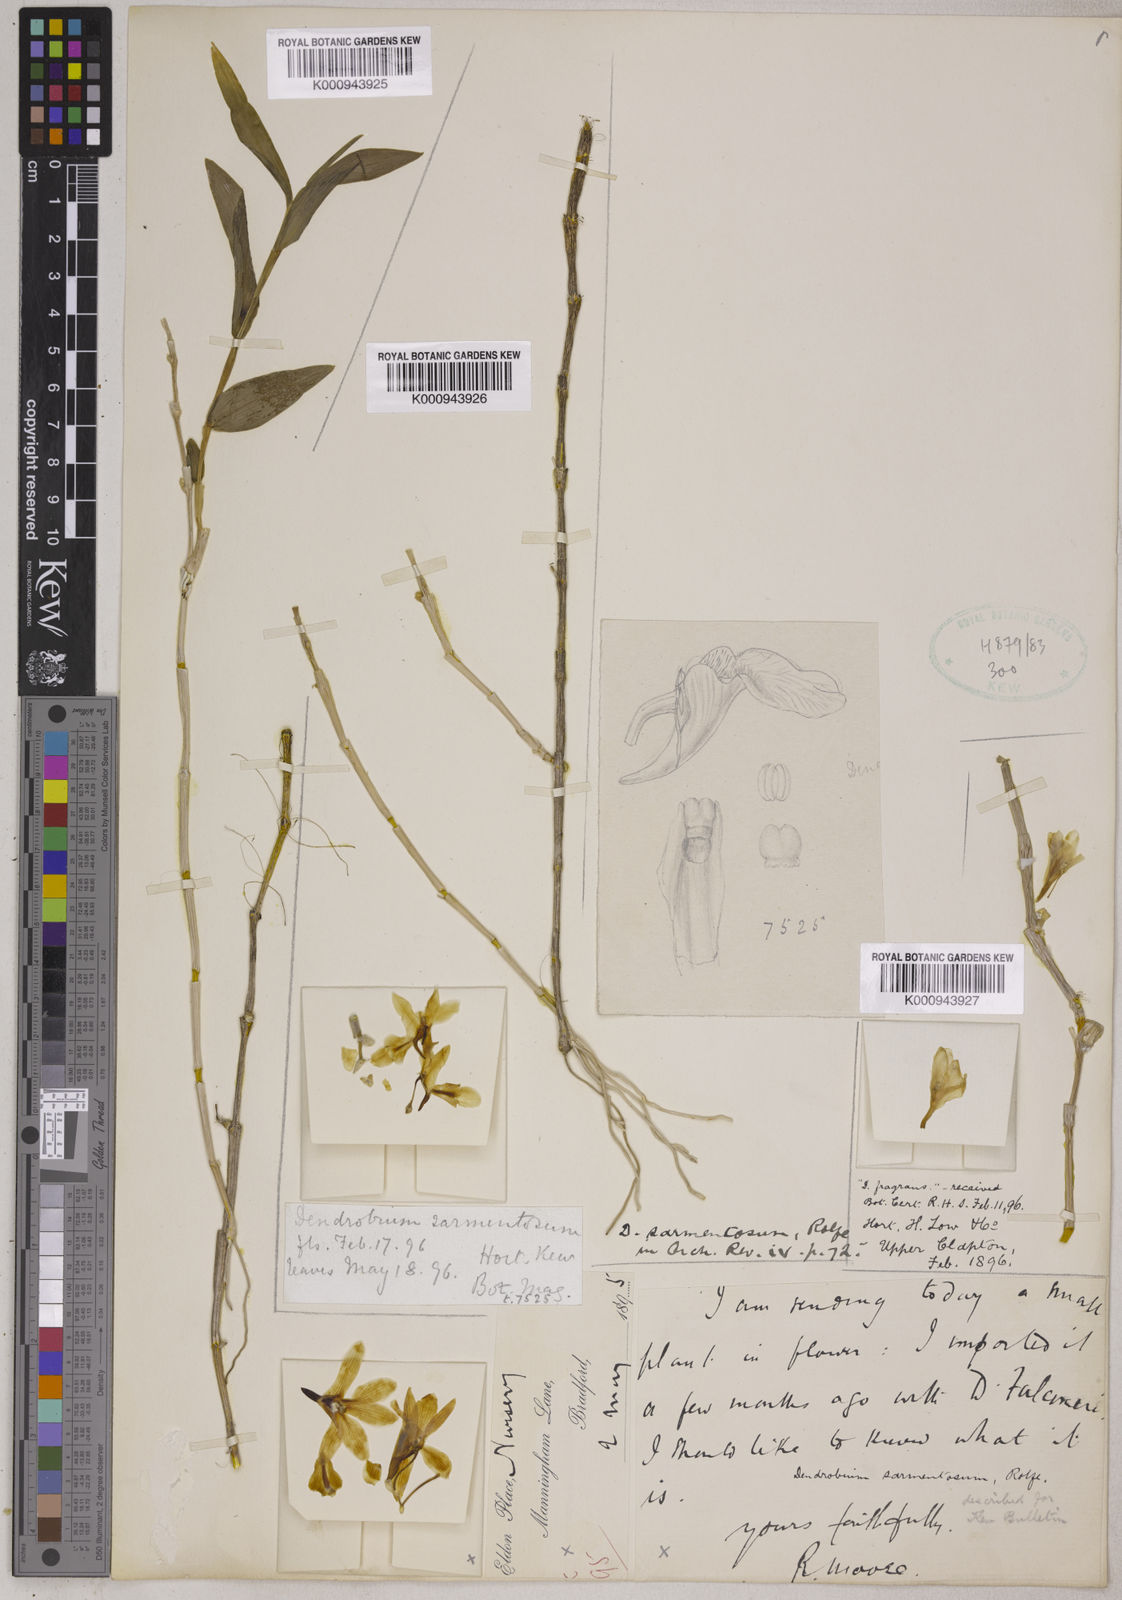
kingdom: Plantae
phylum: Tracheophyta
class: Liliopsida
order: Asparagales
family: Orchidaceae
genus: Dendrobium
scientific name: Dendrobium sarmentosum
